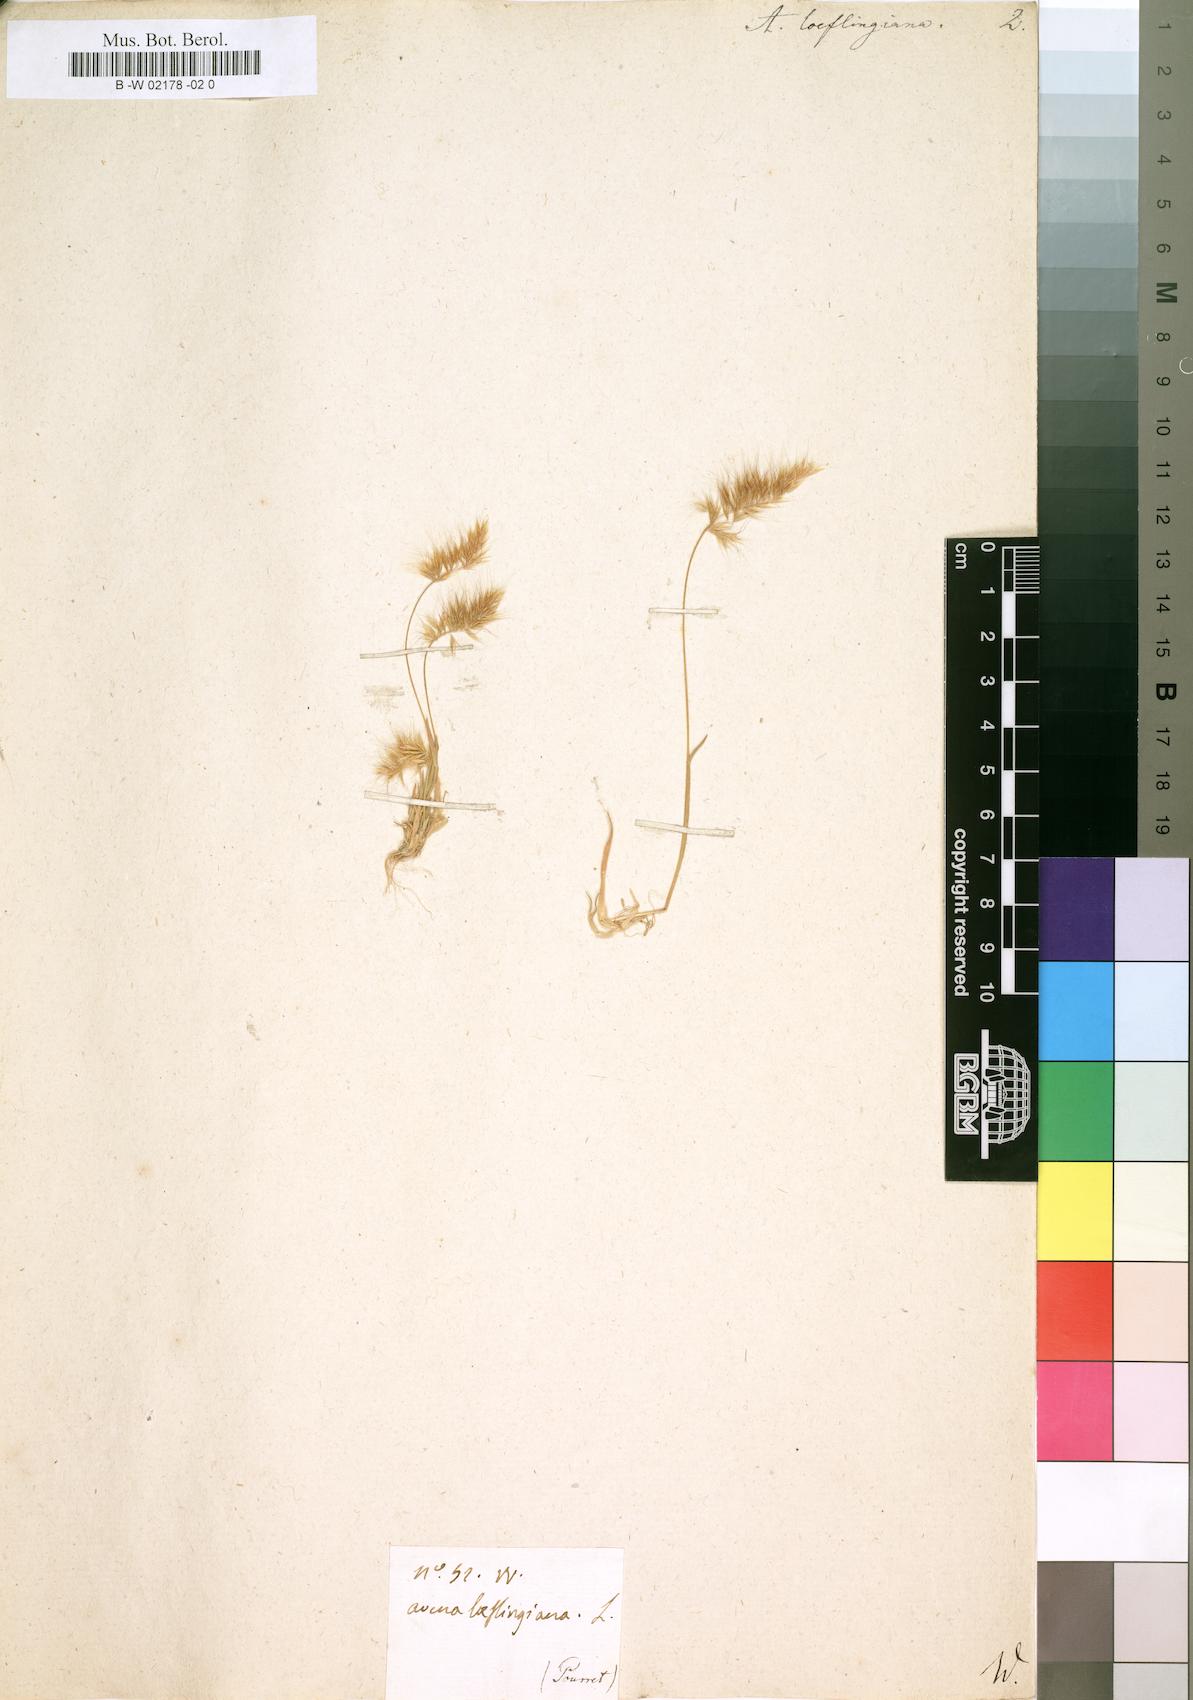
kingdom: Plantae
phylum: Tracheophyta
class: Liliopsida
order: Poales
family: Poaceae
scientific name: Poaceae
